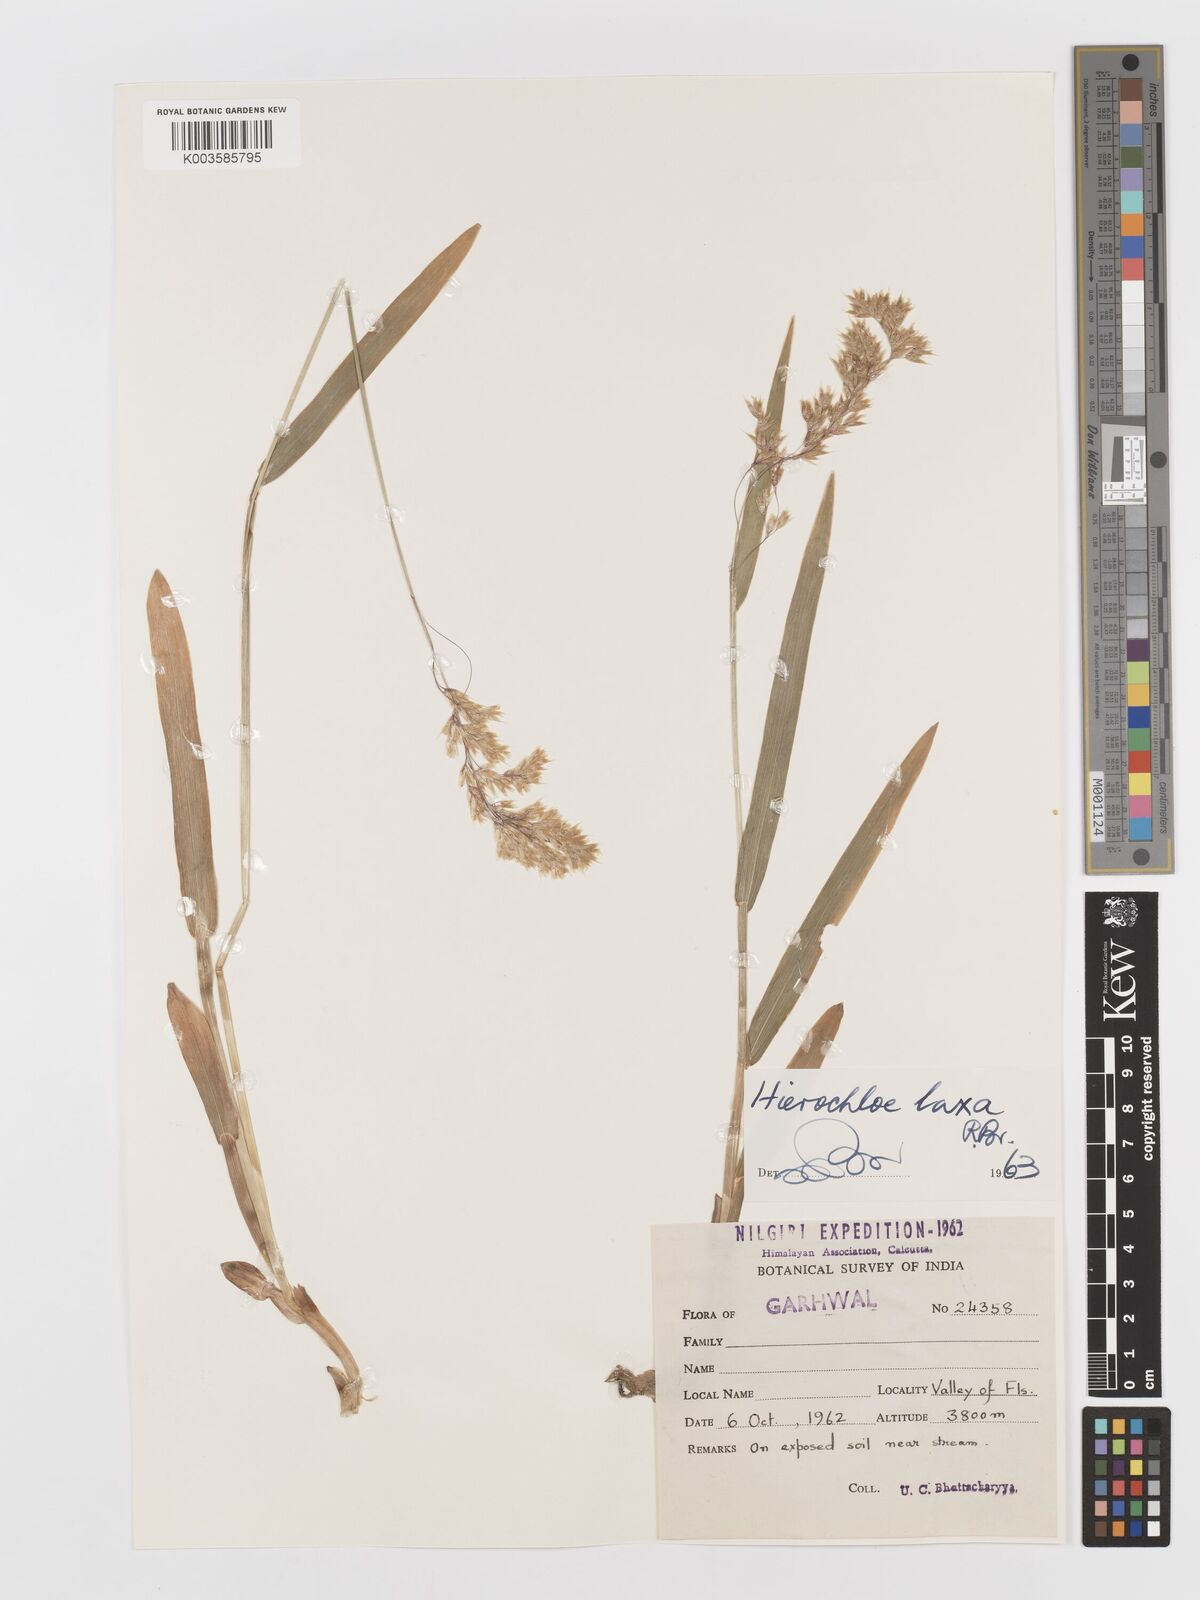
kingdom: Plantae
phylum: Tracheophyta
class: Liliopsida
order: Poales
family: Poaceae
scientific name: Poaceae
